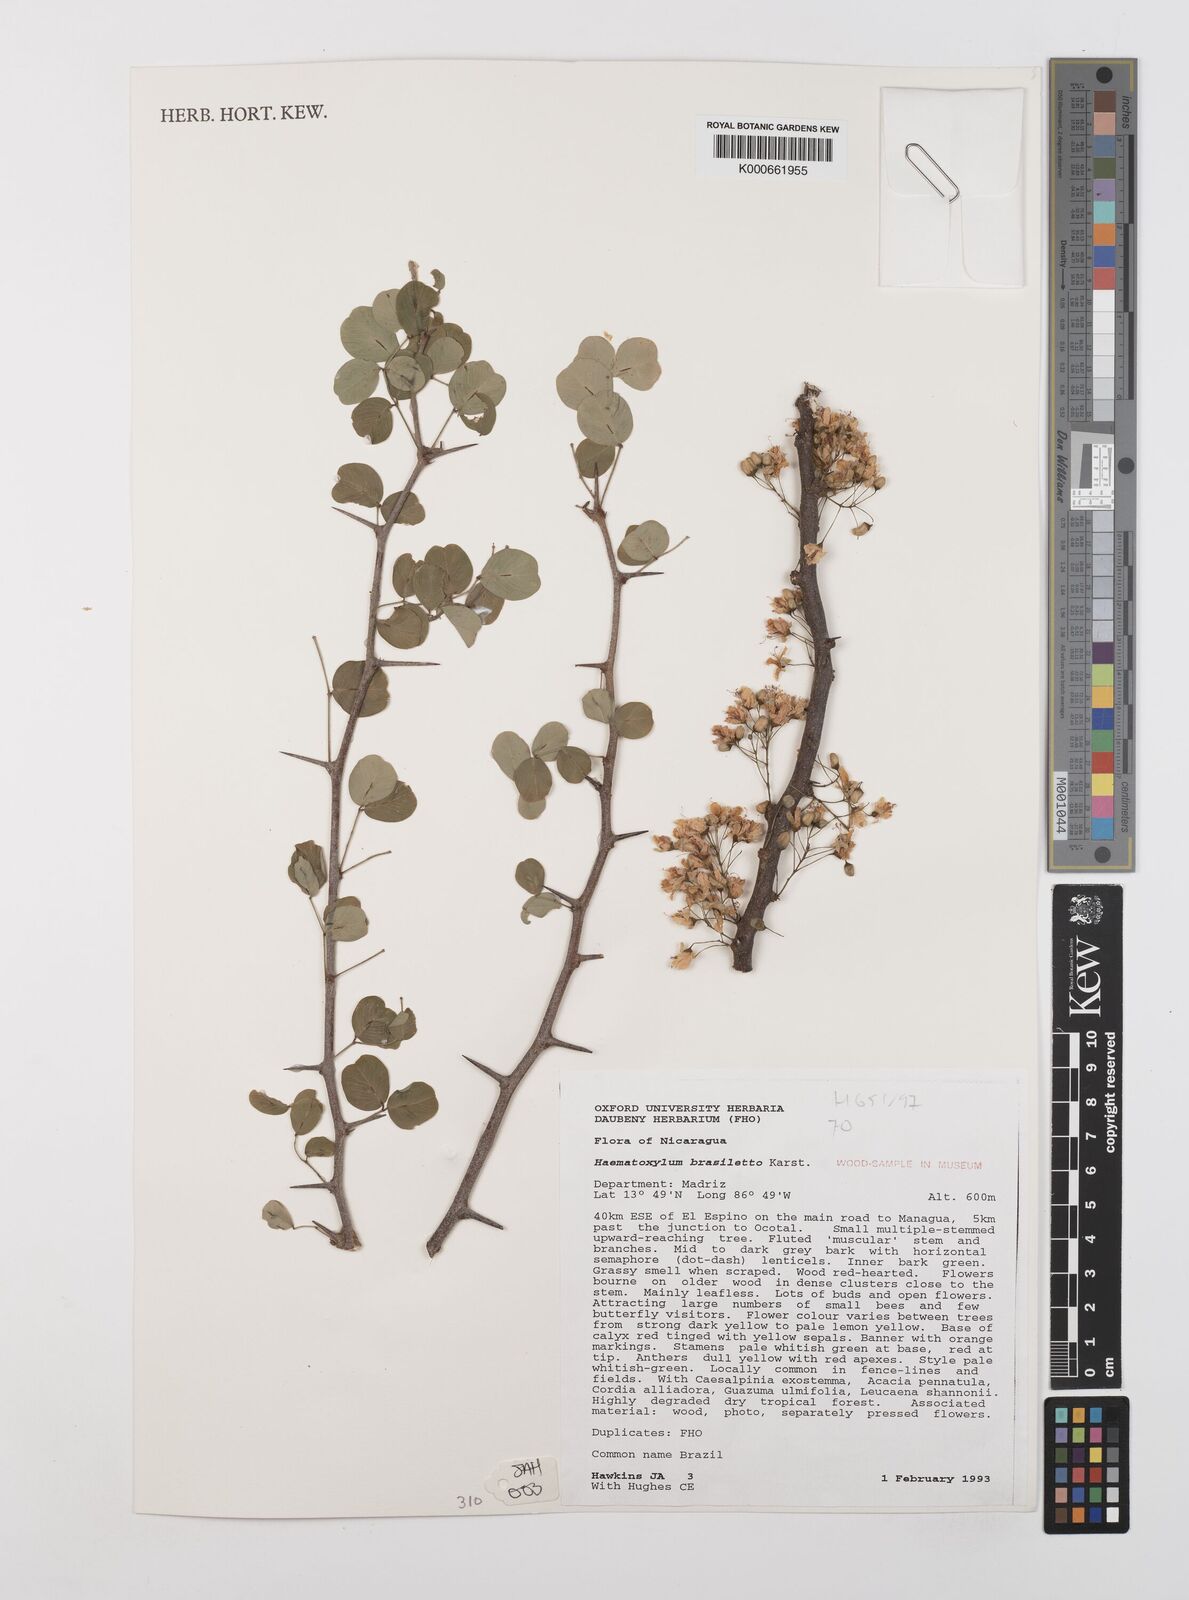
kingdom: Plantae
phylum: Tracheophyta
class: Magnoliopsida
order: Fabales
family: Fabaceae
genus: Haematoxylum
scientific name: Haematoxylum brasiletto
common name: Peachwood
